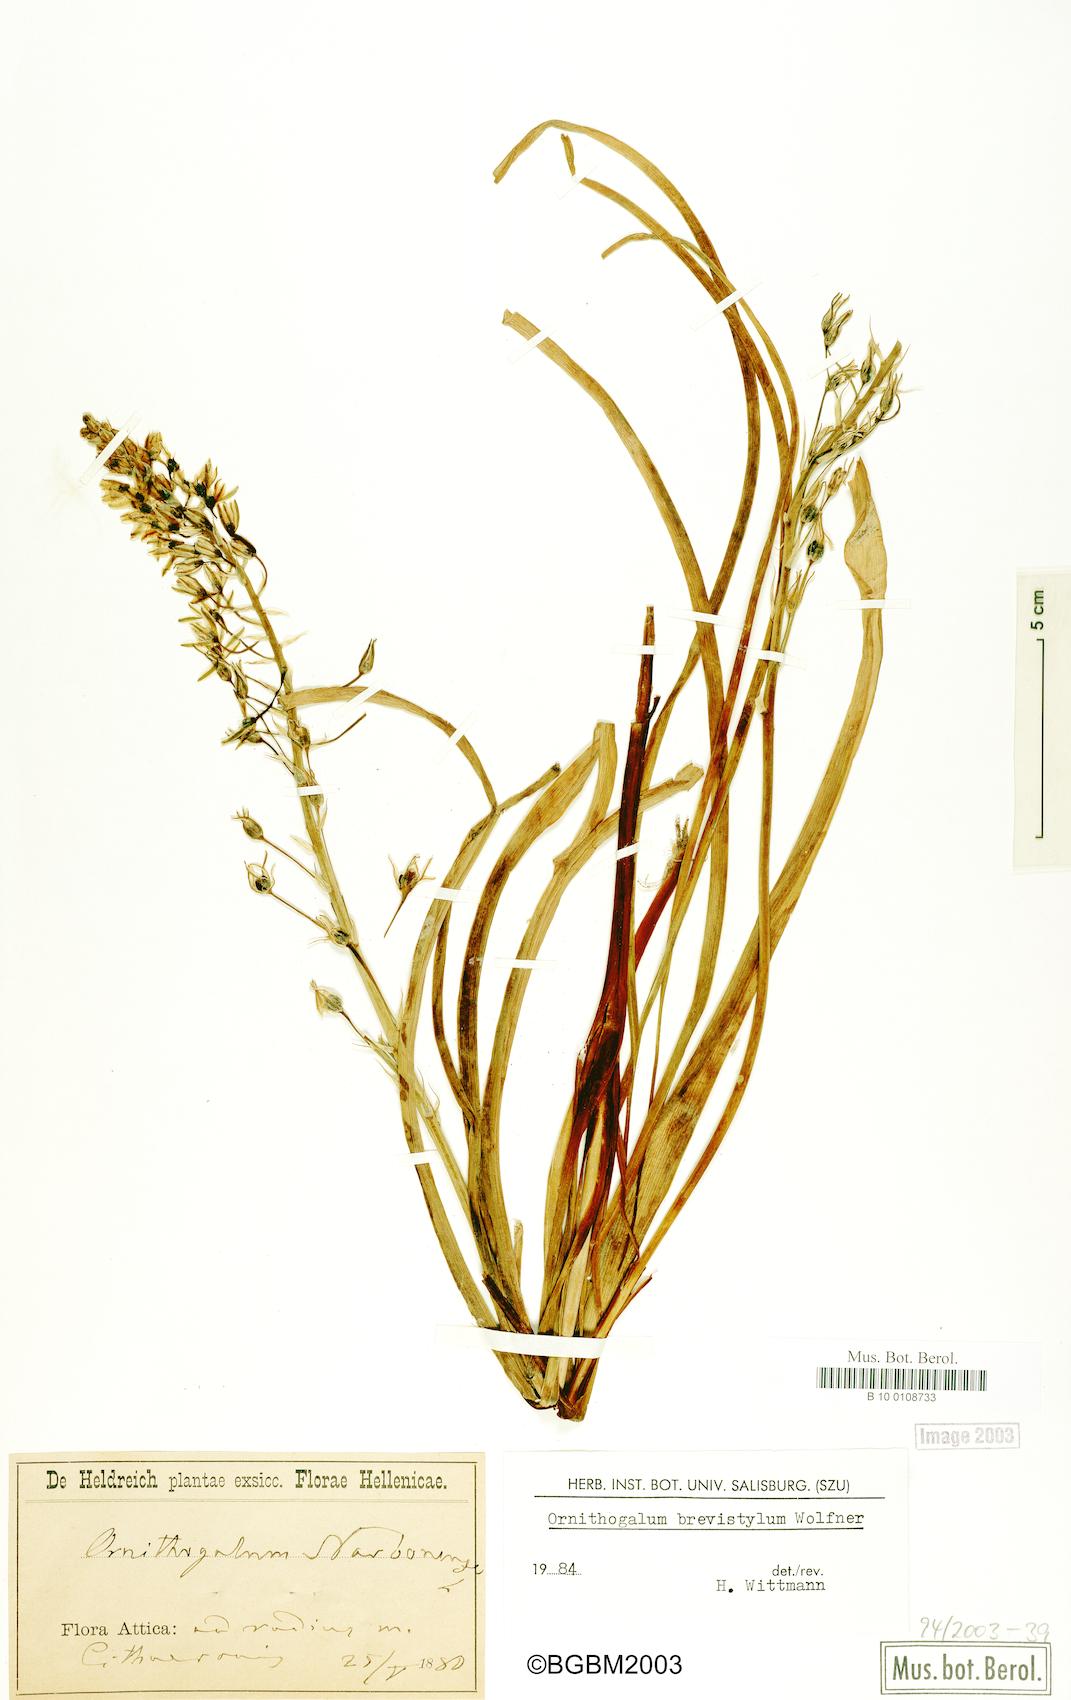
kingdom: Plantae
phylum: Tracheophyta
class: Liliopsida
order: Asparagales
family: Asparagaceae
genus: Ornithogalum
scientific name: Ornithogalum pyramidale
